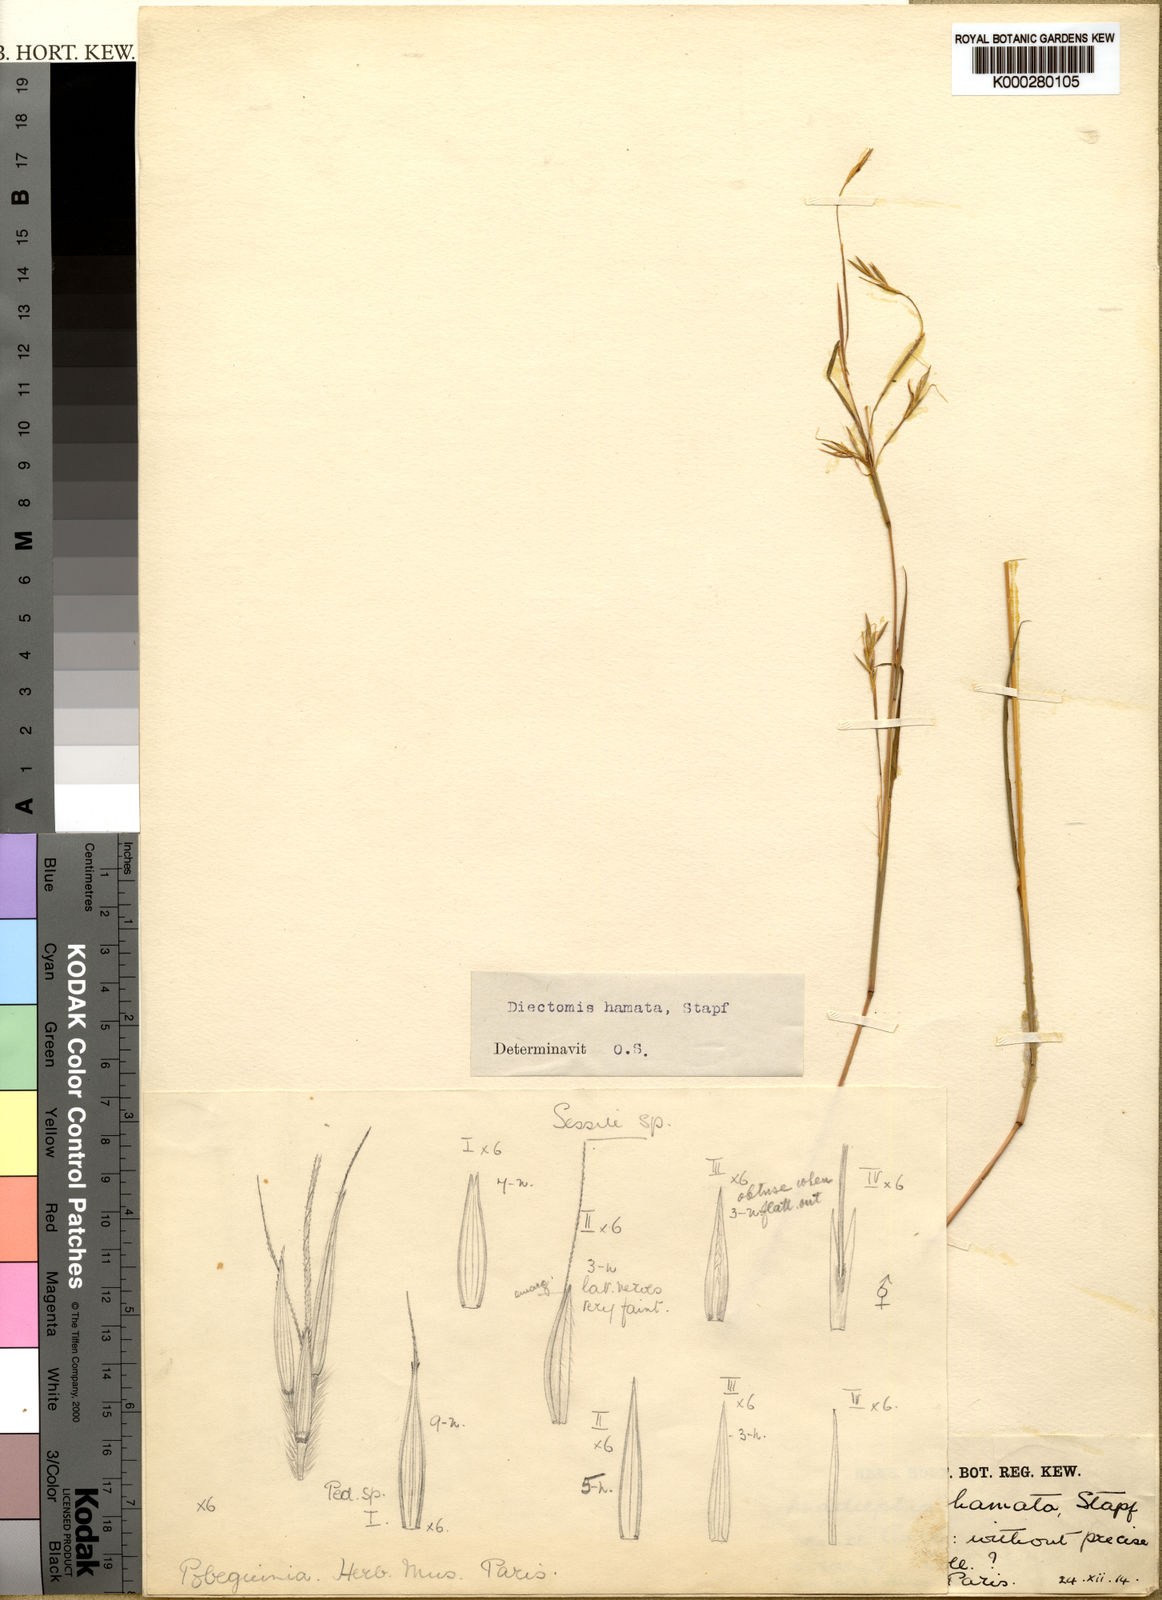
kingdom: Plantae
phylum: Tracheophyta
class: Liliopsida
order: Poales
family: Poaceae
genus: Anadelphia
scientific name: Anadelphia hamata
